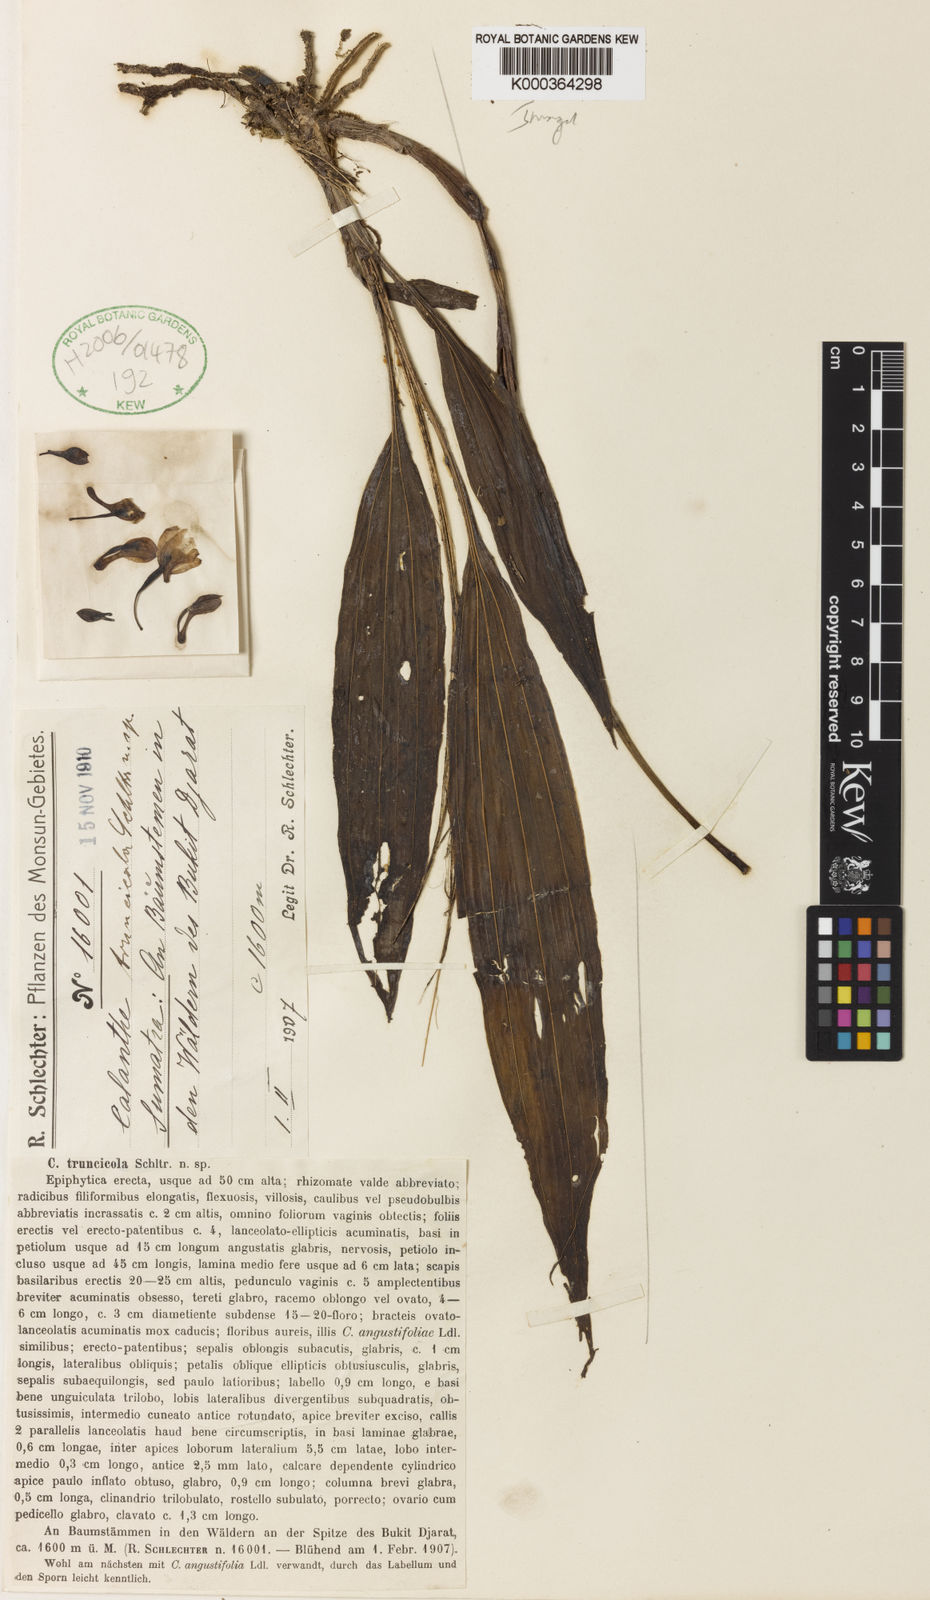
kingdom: Plantae
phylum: Tracheophyta
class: Liliopsida
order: Asparagales
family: Orchidaceae
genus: Calanthe
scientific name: Calanthe truncicola
